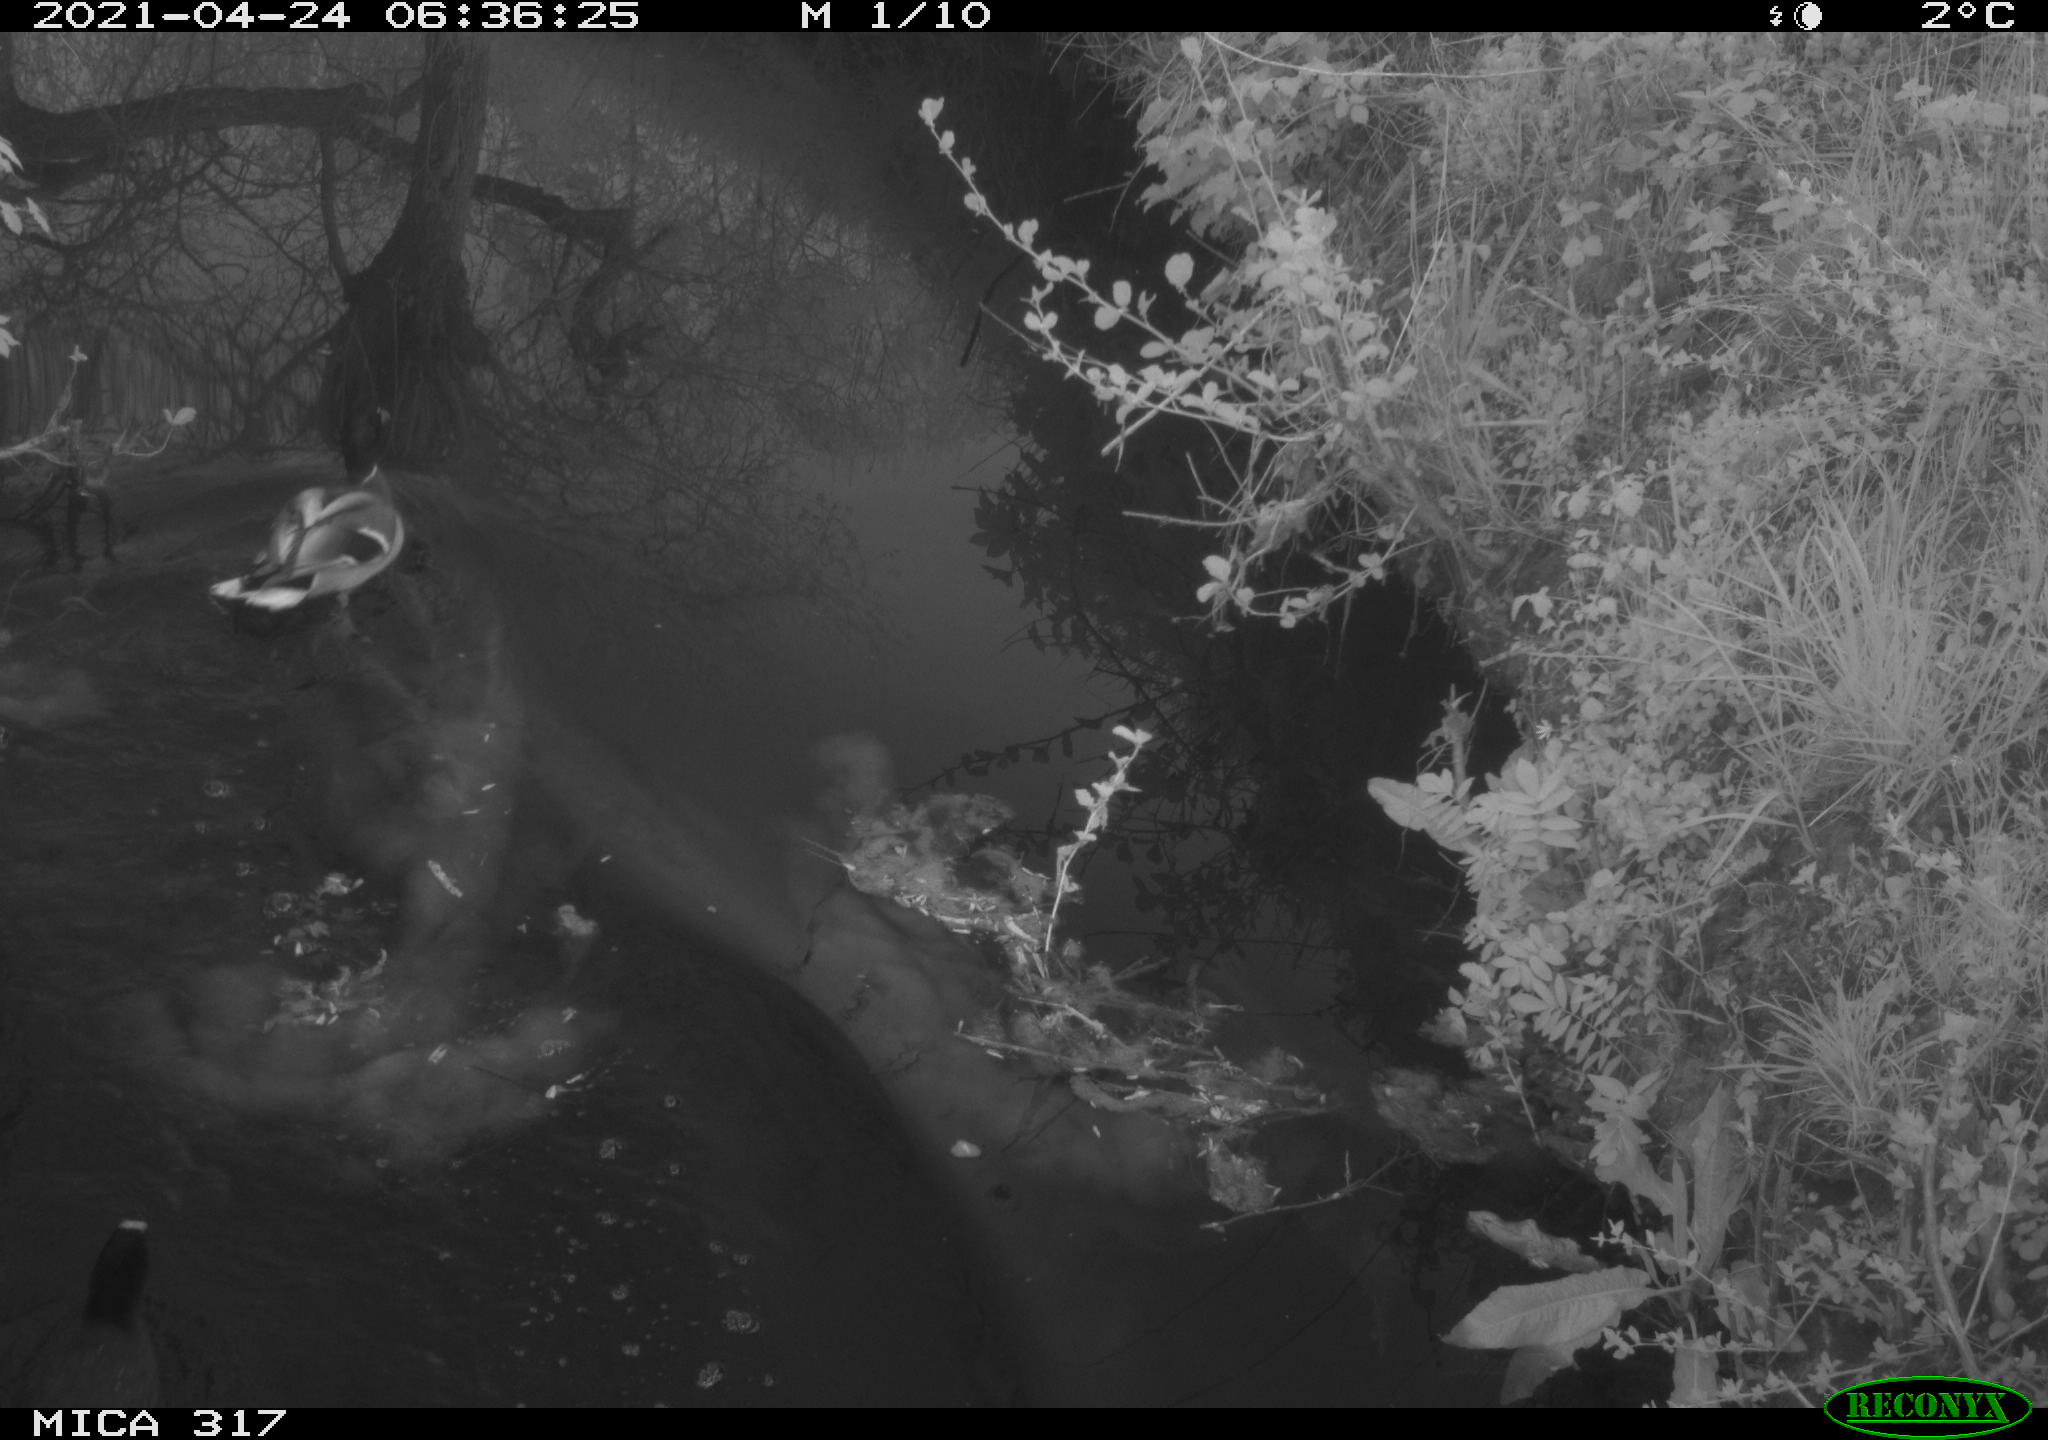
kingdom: Animalia
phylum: Chordata
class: Aves
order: Anseriformes
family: Anatidae
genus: Anas
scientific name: Anas
